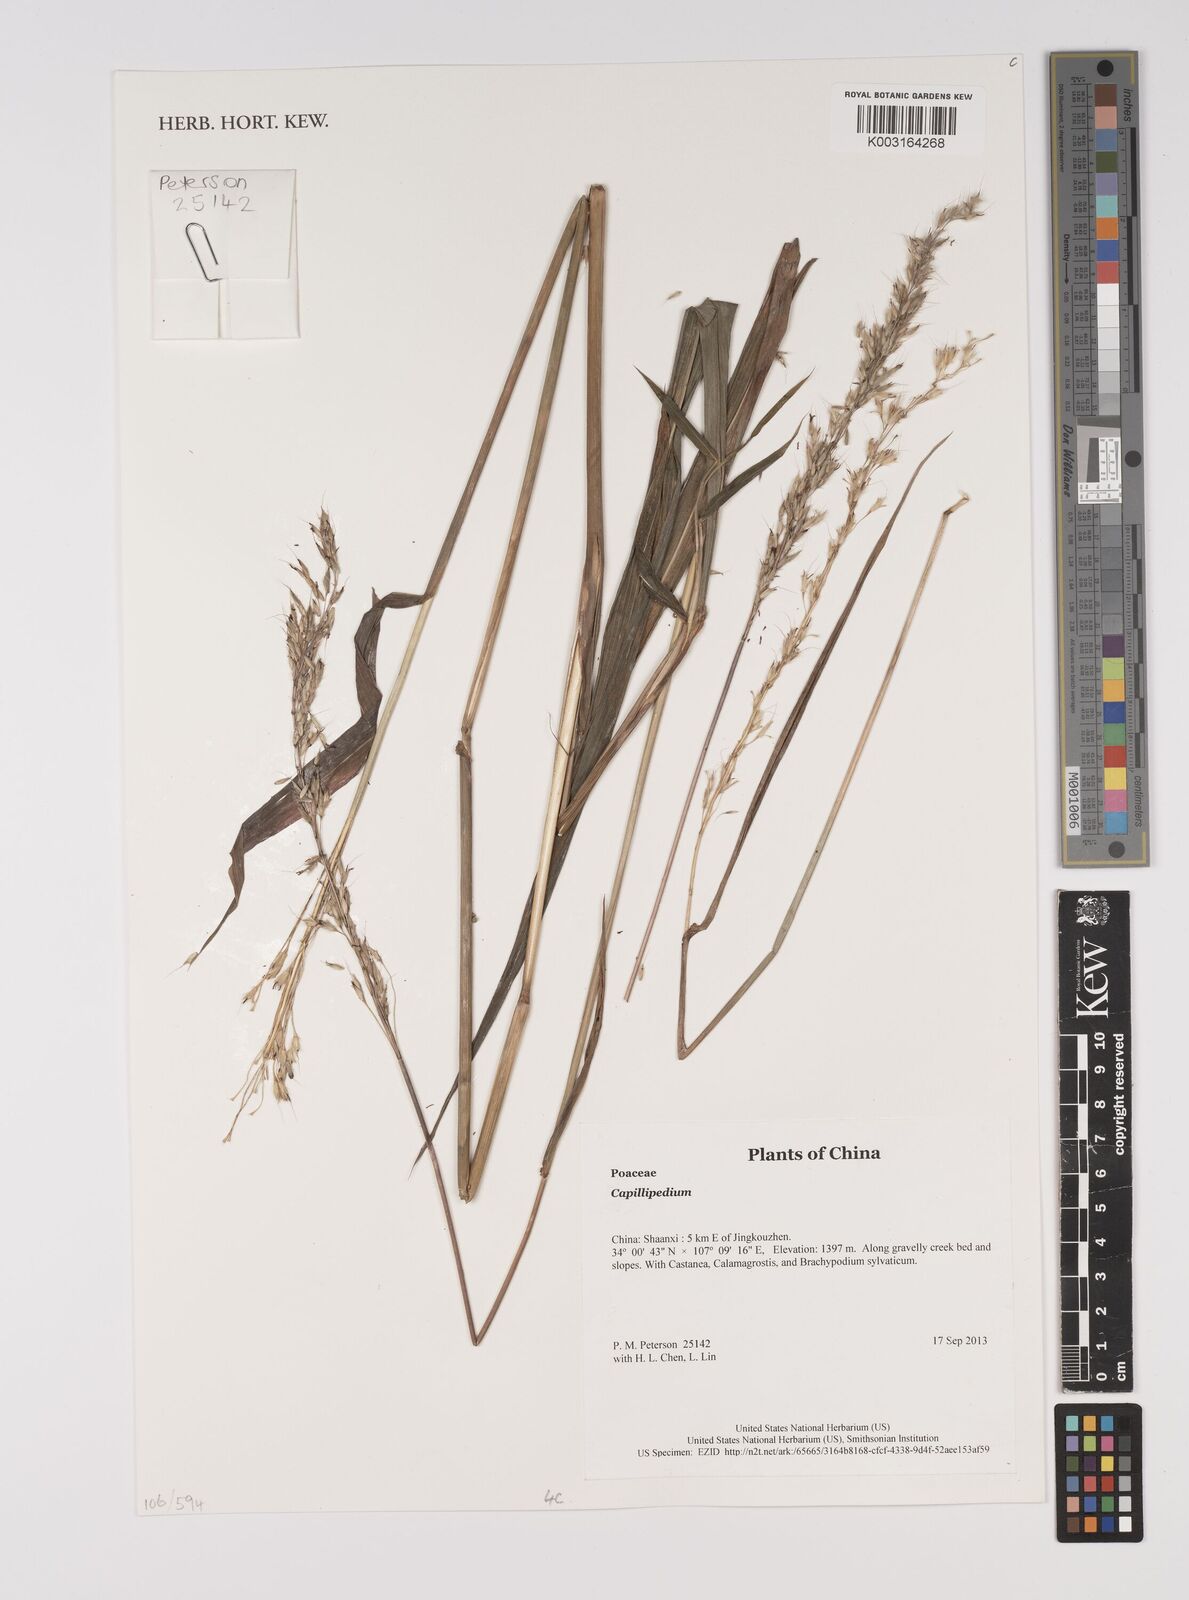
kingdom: Plantae
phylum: Tracheophyta
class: Liliopsida
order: Poales
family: Poaceae
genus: Capillipedium
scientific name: Capillipedium
